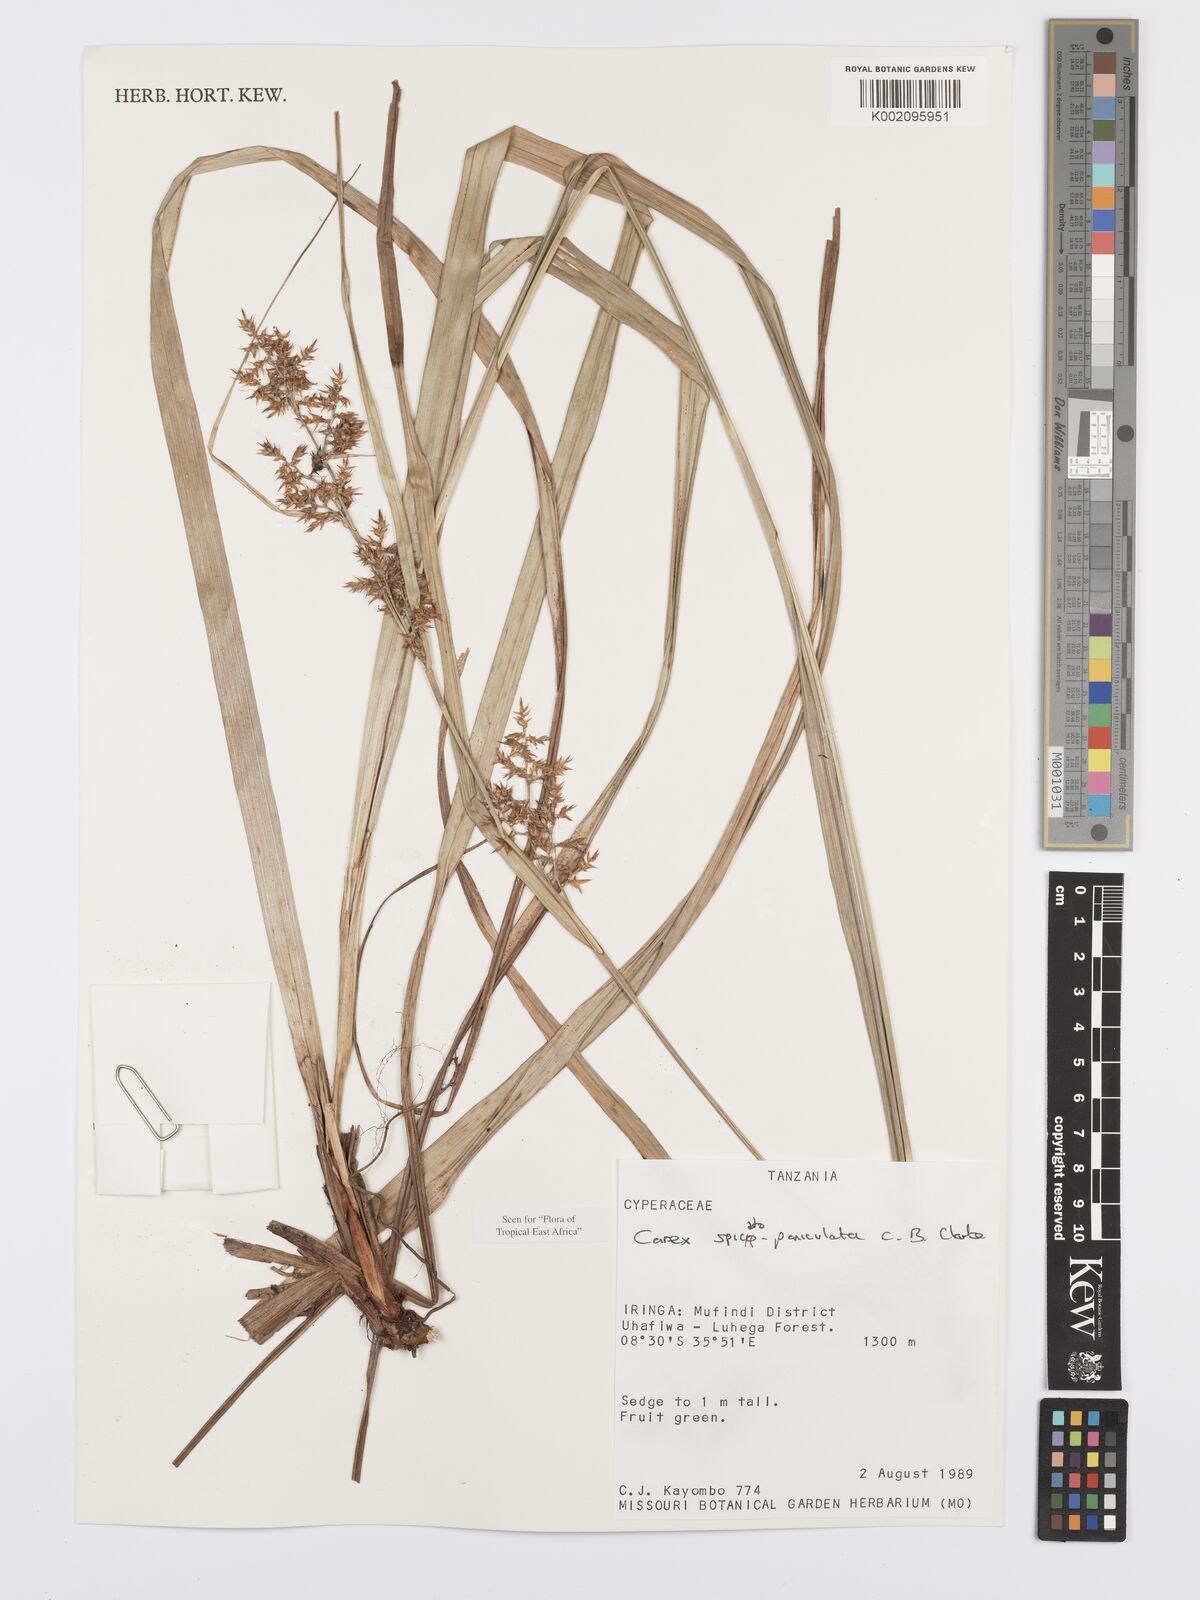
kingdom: Plantae
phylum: Tracheophyta
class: Liliopsida
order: Poales
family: Cyperaceae
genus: Carex
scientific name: Carex spicatopaniculata
